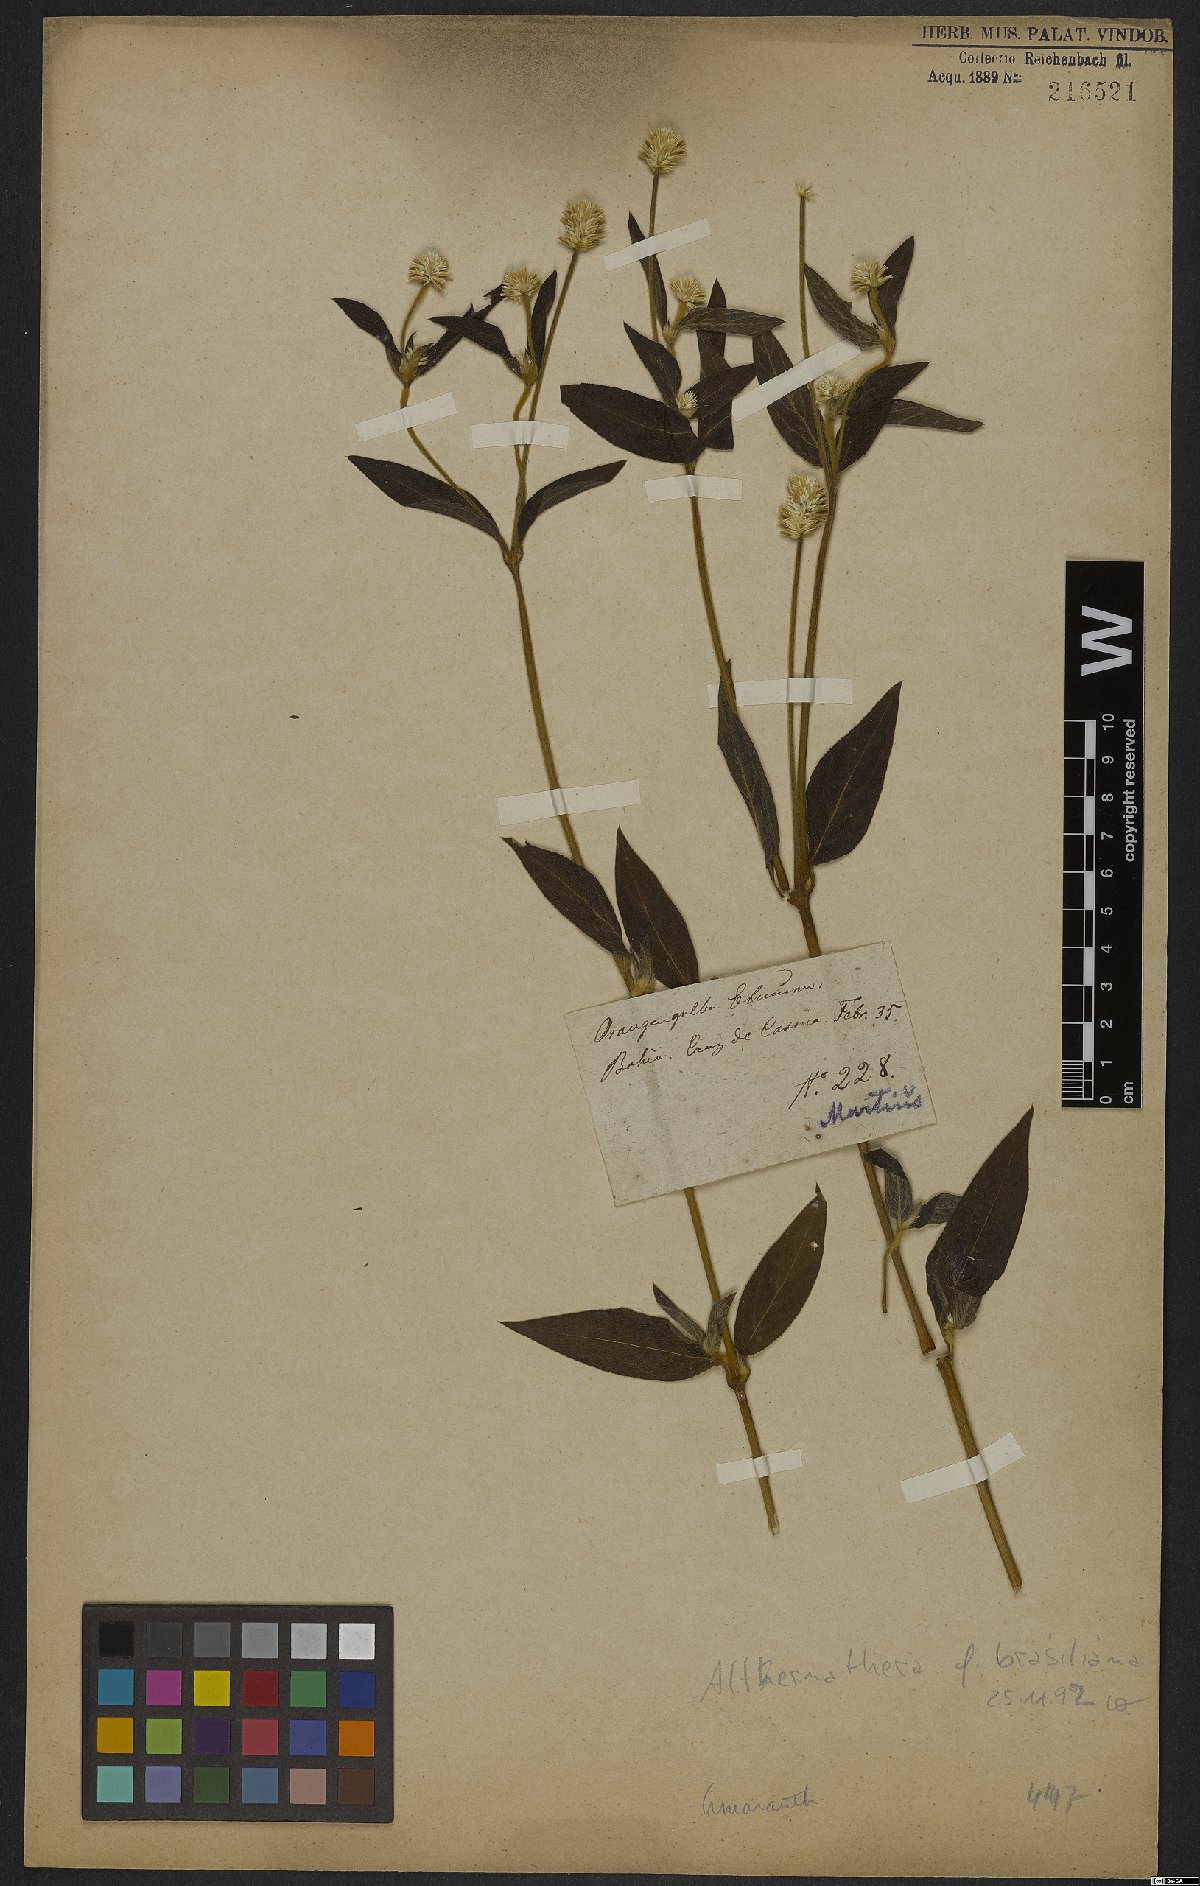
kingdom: Plantae
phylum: Tracheophyta
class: Magnoliopsida
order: Caryophyllales
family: Amaranthaceae
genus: Alternanthera
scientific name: Alternanthera brasiliana
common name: Brazilian joyweed
